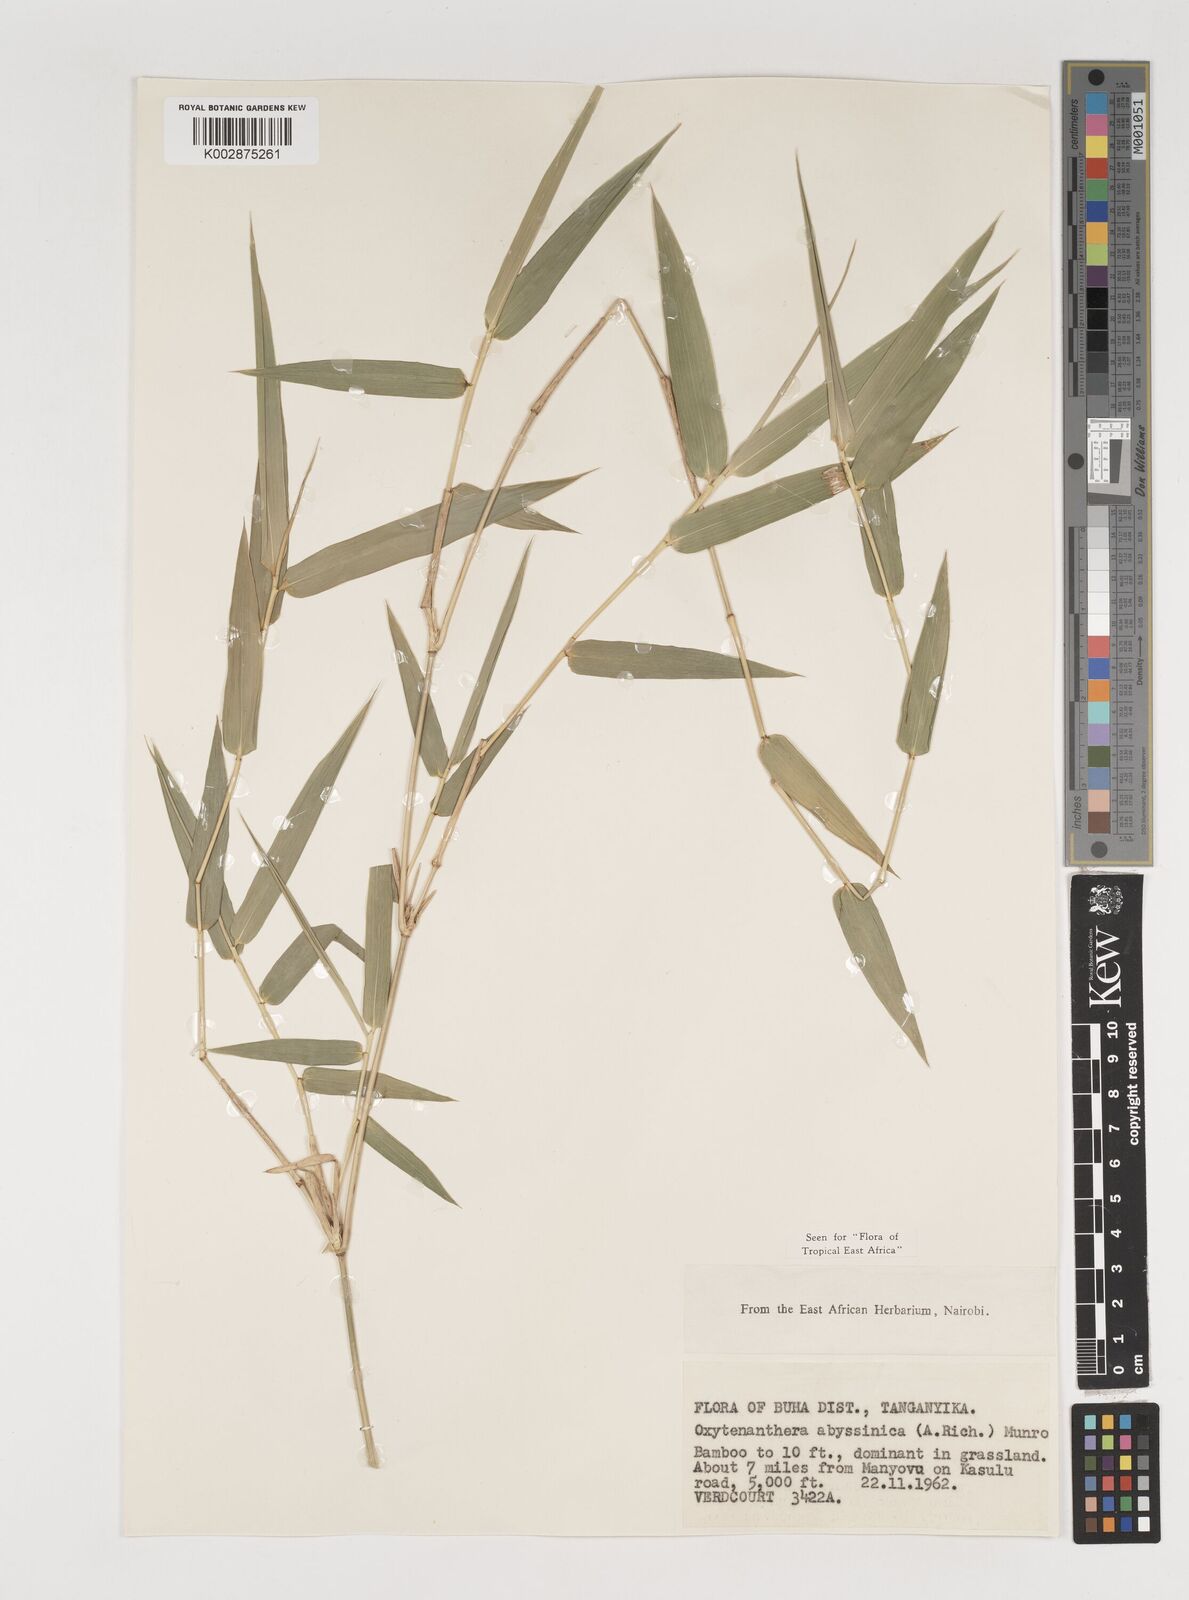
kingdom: Plantae
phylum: Tracheophyta
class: Liliopsida
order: Poales
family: Poaceae
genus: Oxytenanthera
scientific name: Oxytenanthera abyssinica
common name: Wine bamboo
